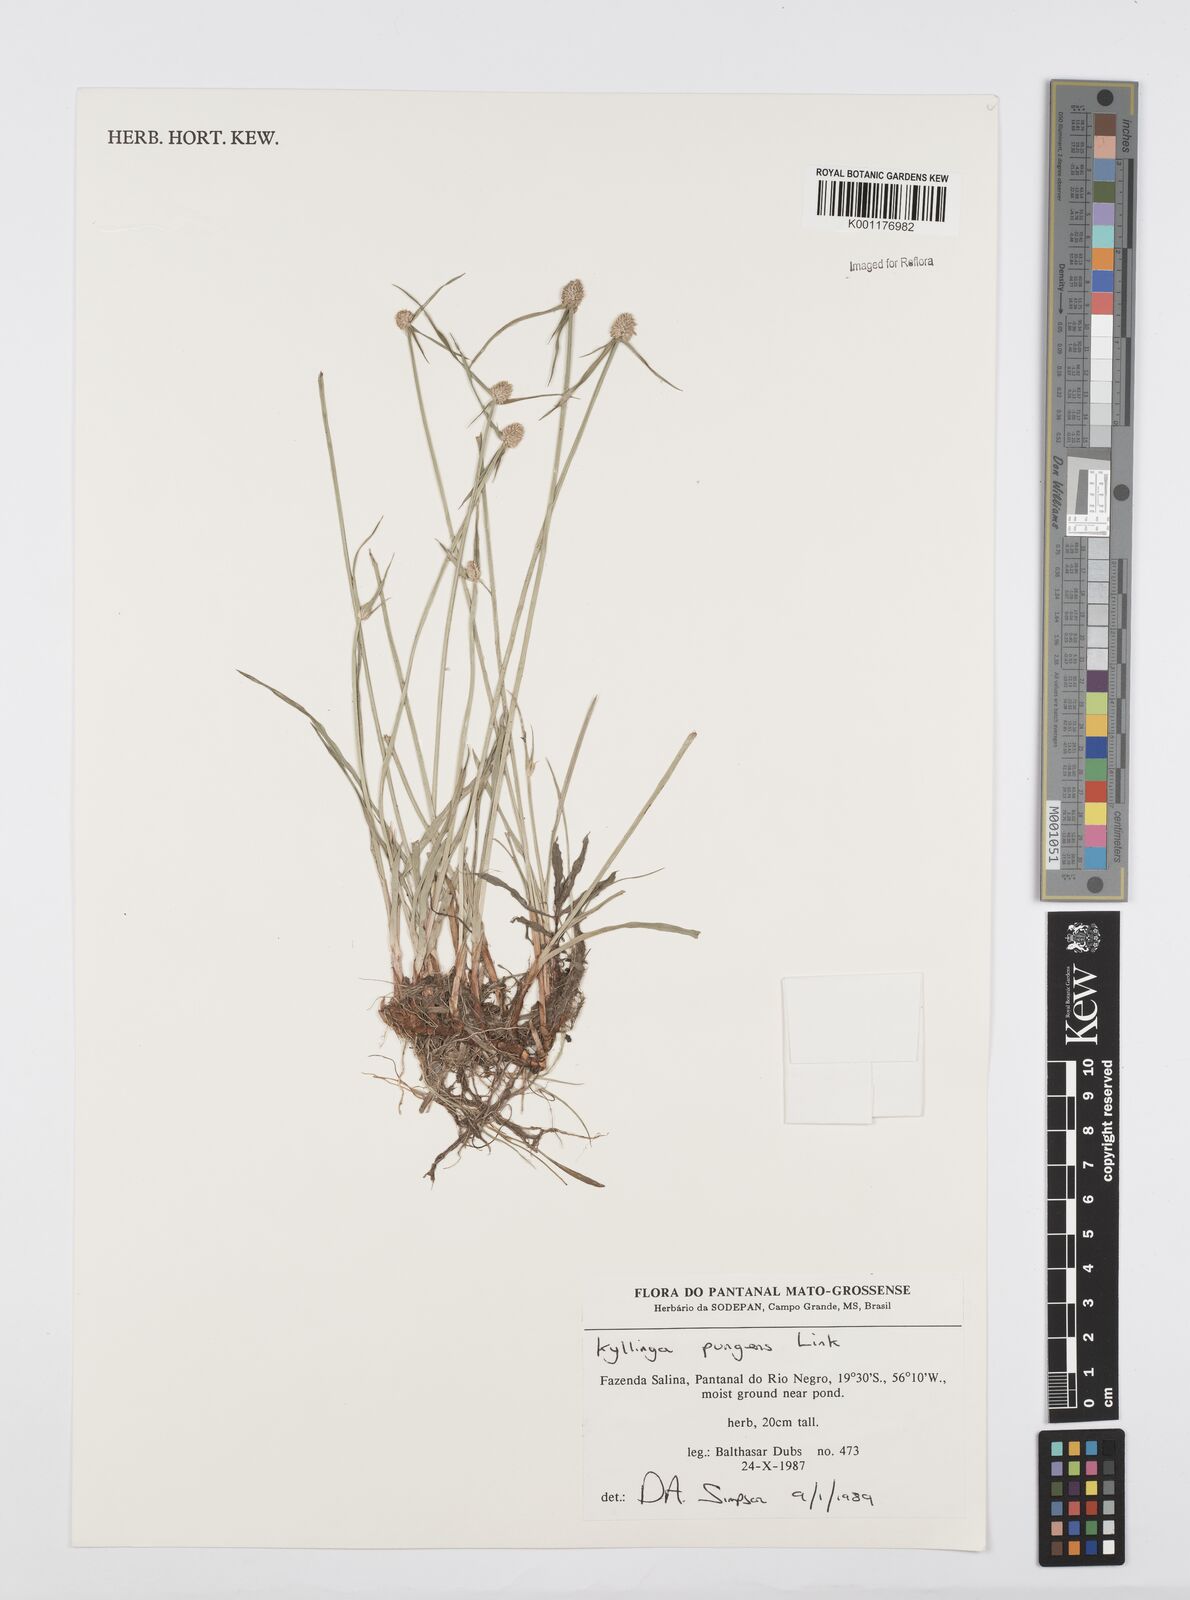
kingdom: Plantae
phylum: Tracheophyta
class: Liliopsida
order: Poales
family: Cyperaceae
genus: Cyperus
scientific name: Cyperus obtusatus
